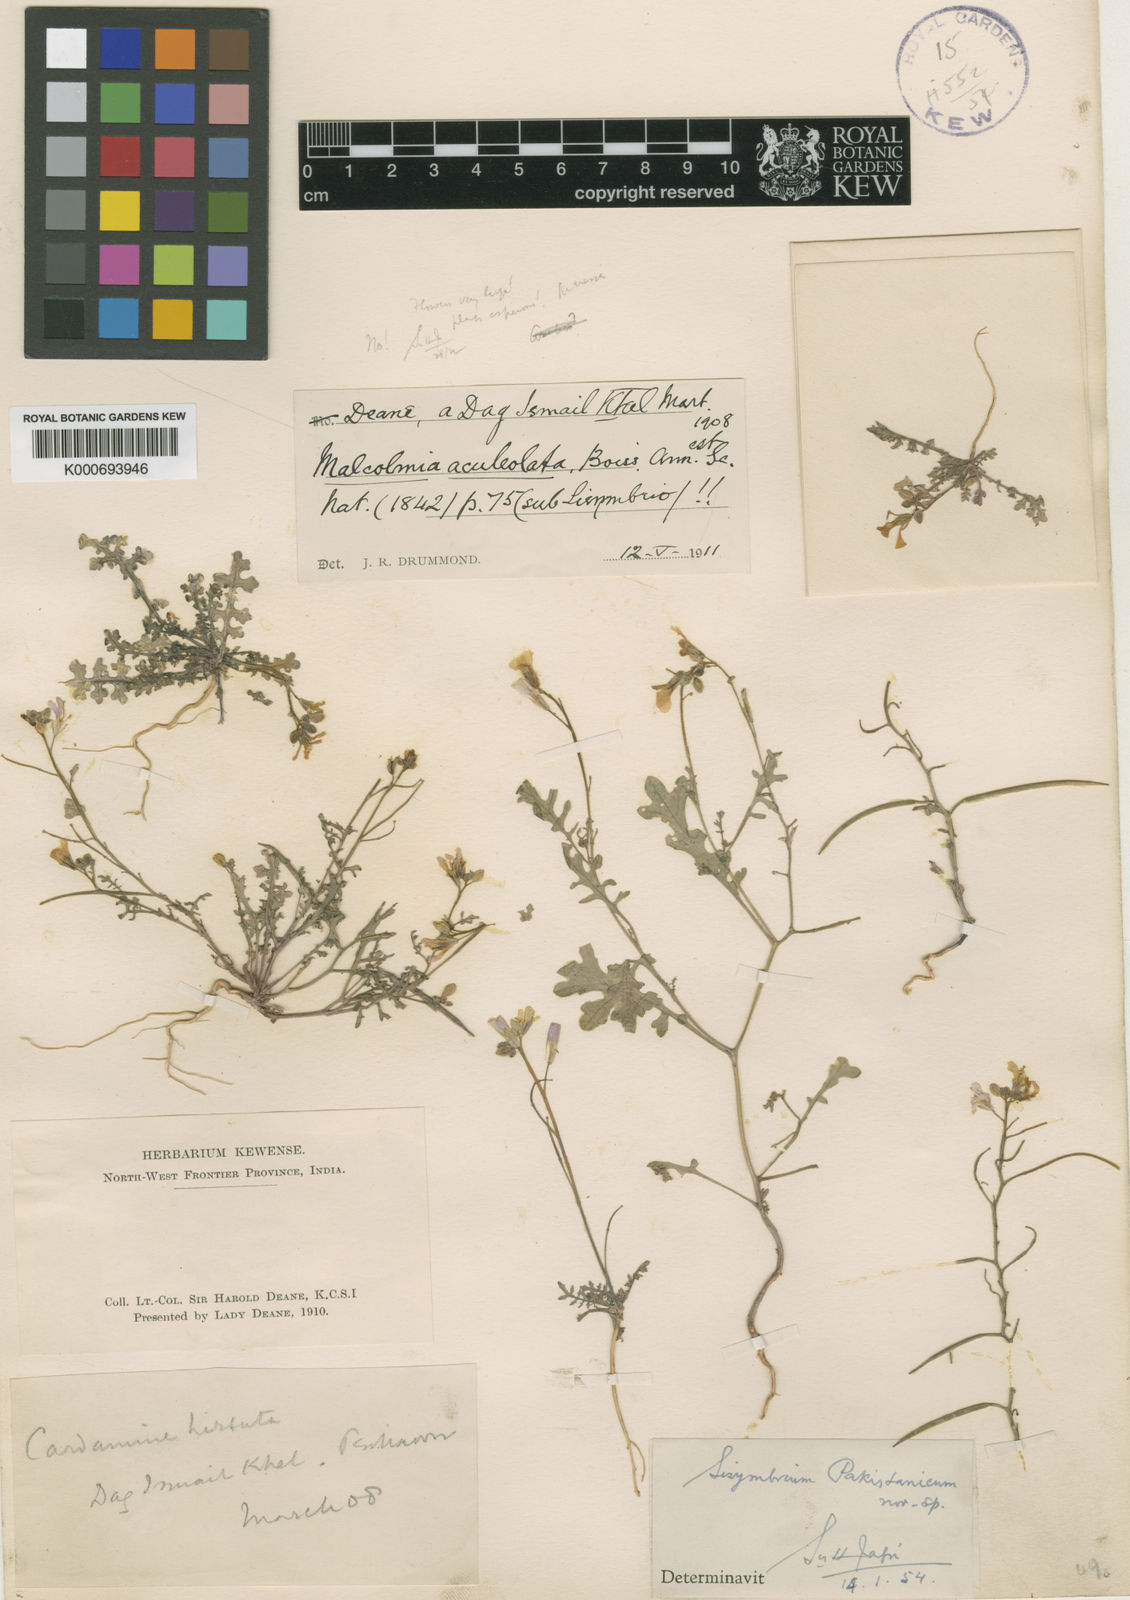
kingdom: Plantae
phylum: Tracheophyta
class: Magnoliopsida
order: Brassicales
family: Brassicaceae
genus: Sisymbrium
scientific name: Sisymbrium
